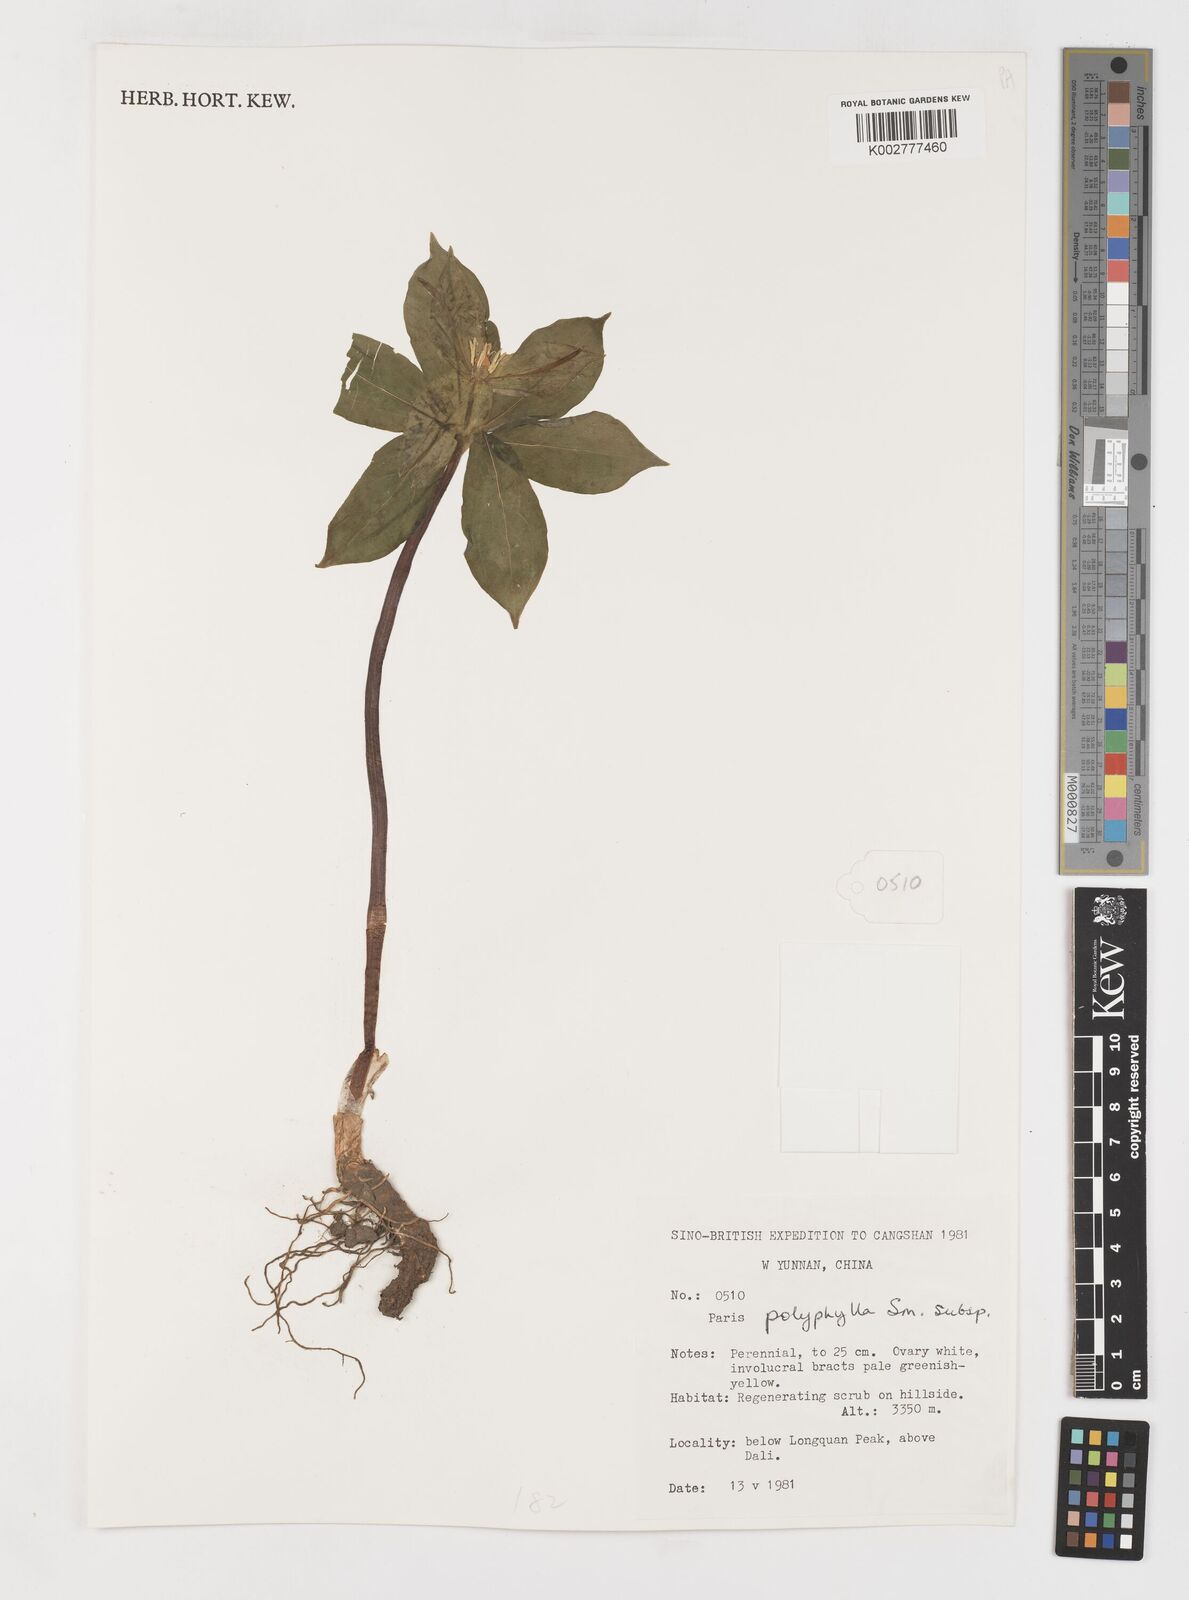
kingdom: Plantae
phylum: Tracheophyta
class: Liliopsida
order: Liliales
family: Melanthiaceae
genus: Paris
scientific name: Paris polyphylla
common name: Love apple
